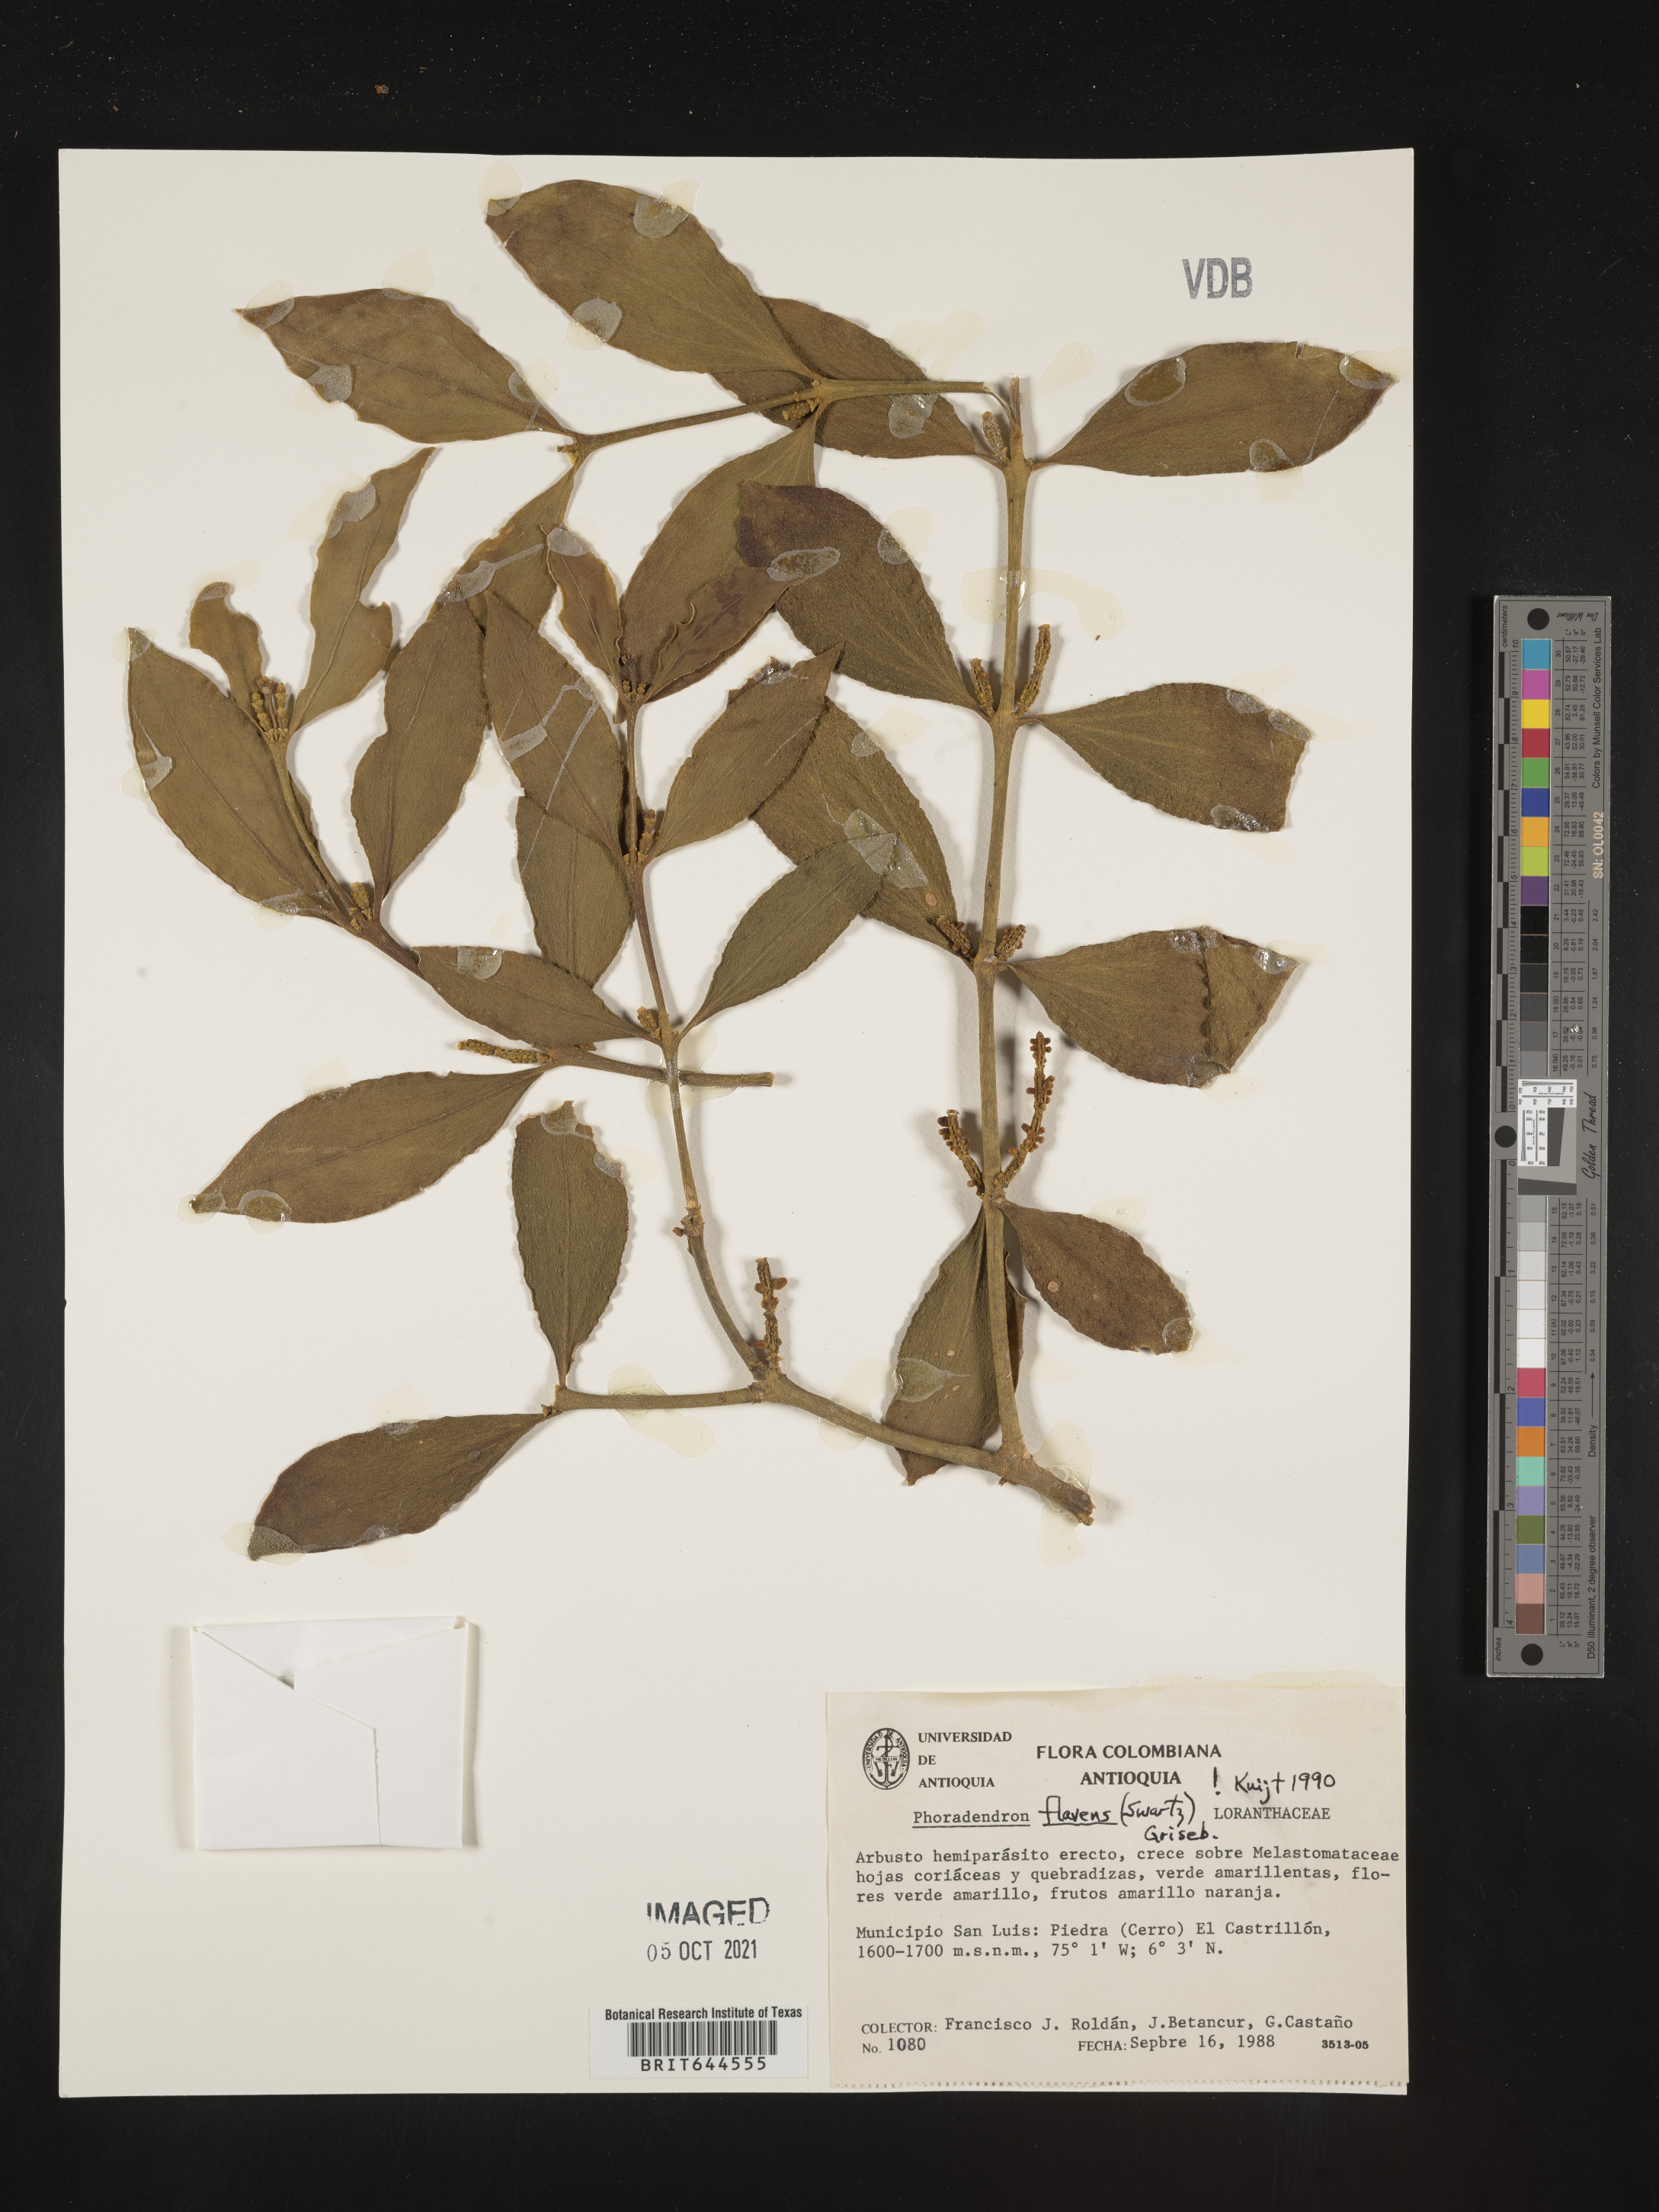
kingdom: Plantae
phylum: Tracheophyta
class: Magnoliopsida
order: Santalales
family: Viscaceae
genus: Phoradendron
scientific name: Phoradendron
